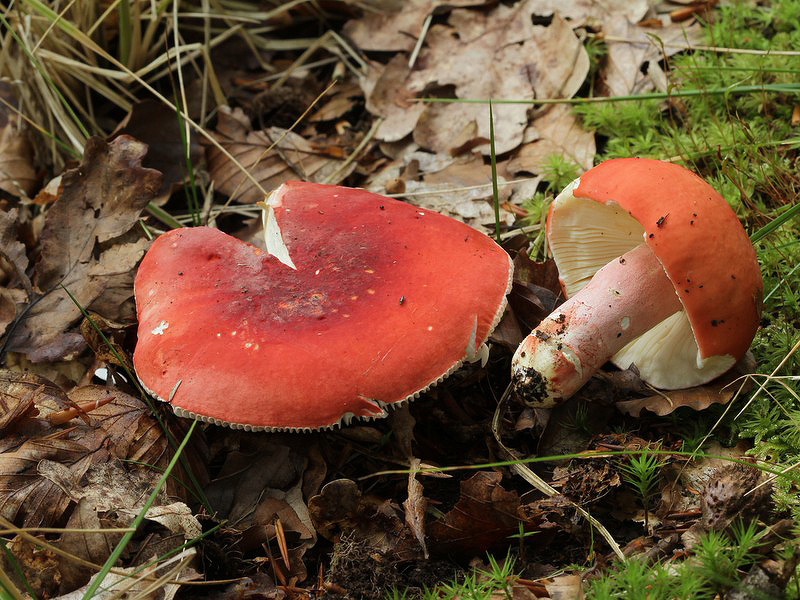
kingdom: Fungi
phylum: Basidiomycota
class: Agaricomycetes
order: Russulales
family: Russulaceae
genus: Russula
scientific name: Russula rosea
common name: fastkødet skørhat
